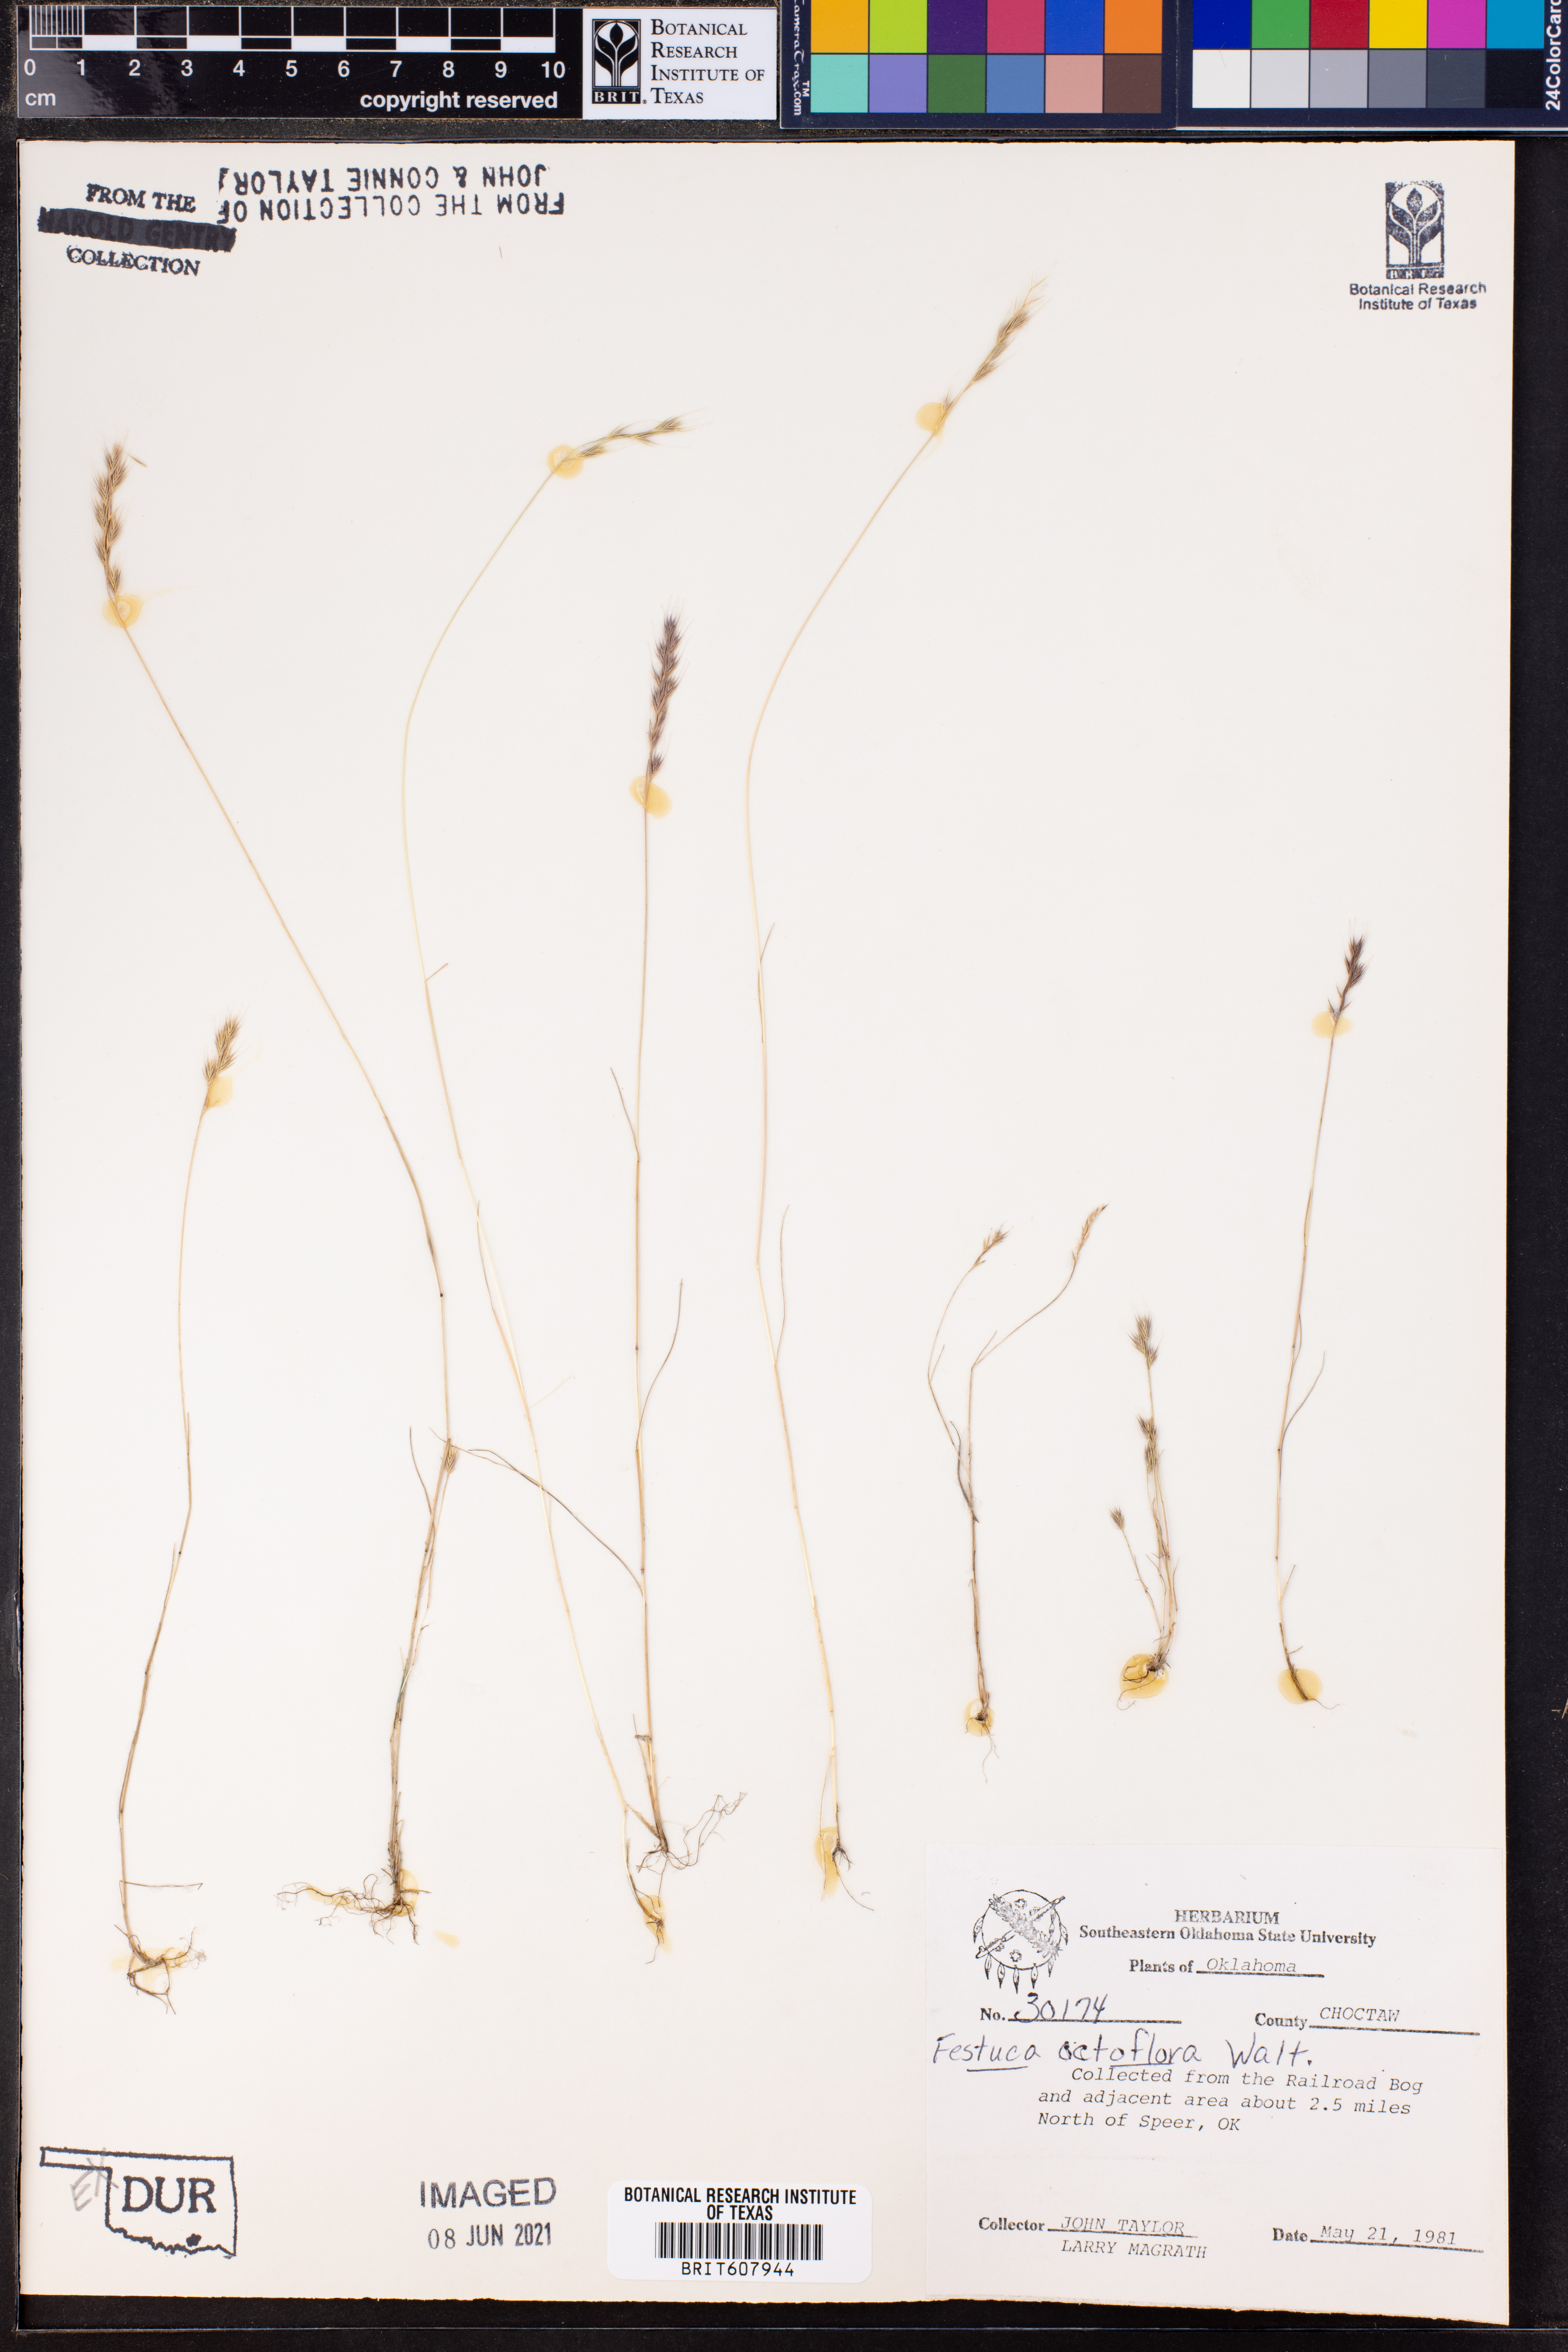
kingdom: Plantae
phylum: Tracheophyta
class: Liliopsida
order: Poales
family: Poaceae
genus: Festuca
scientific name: Festuca octoflora
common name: Sixweeks grass
